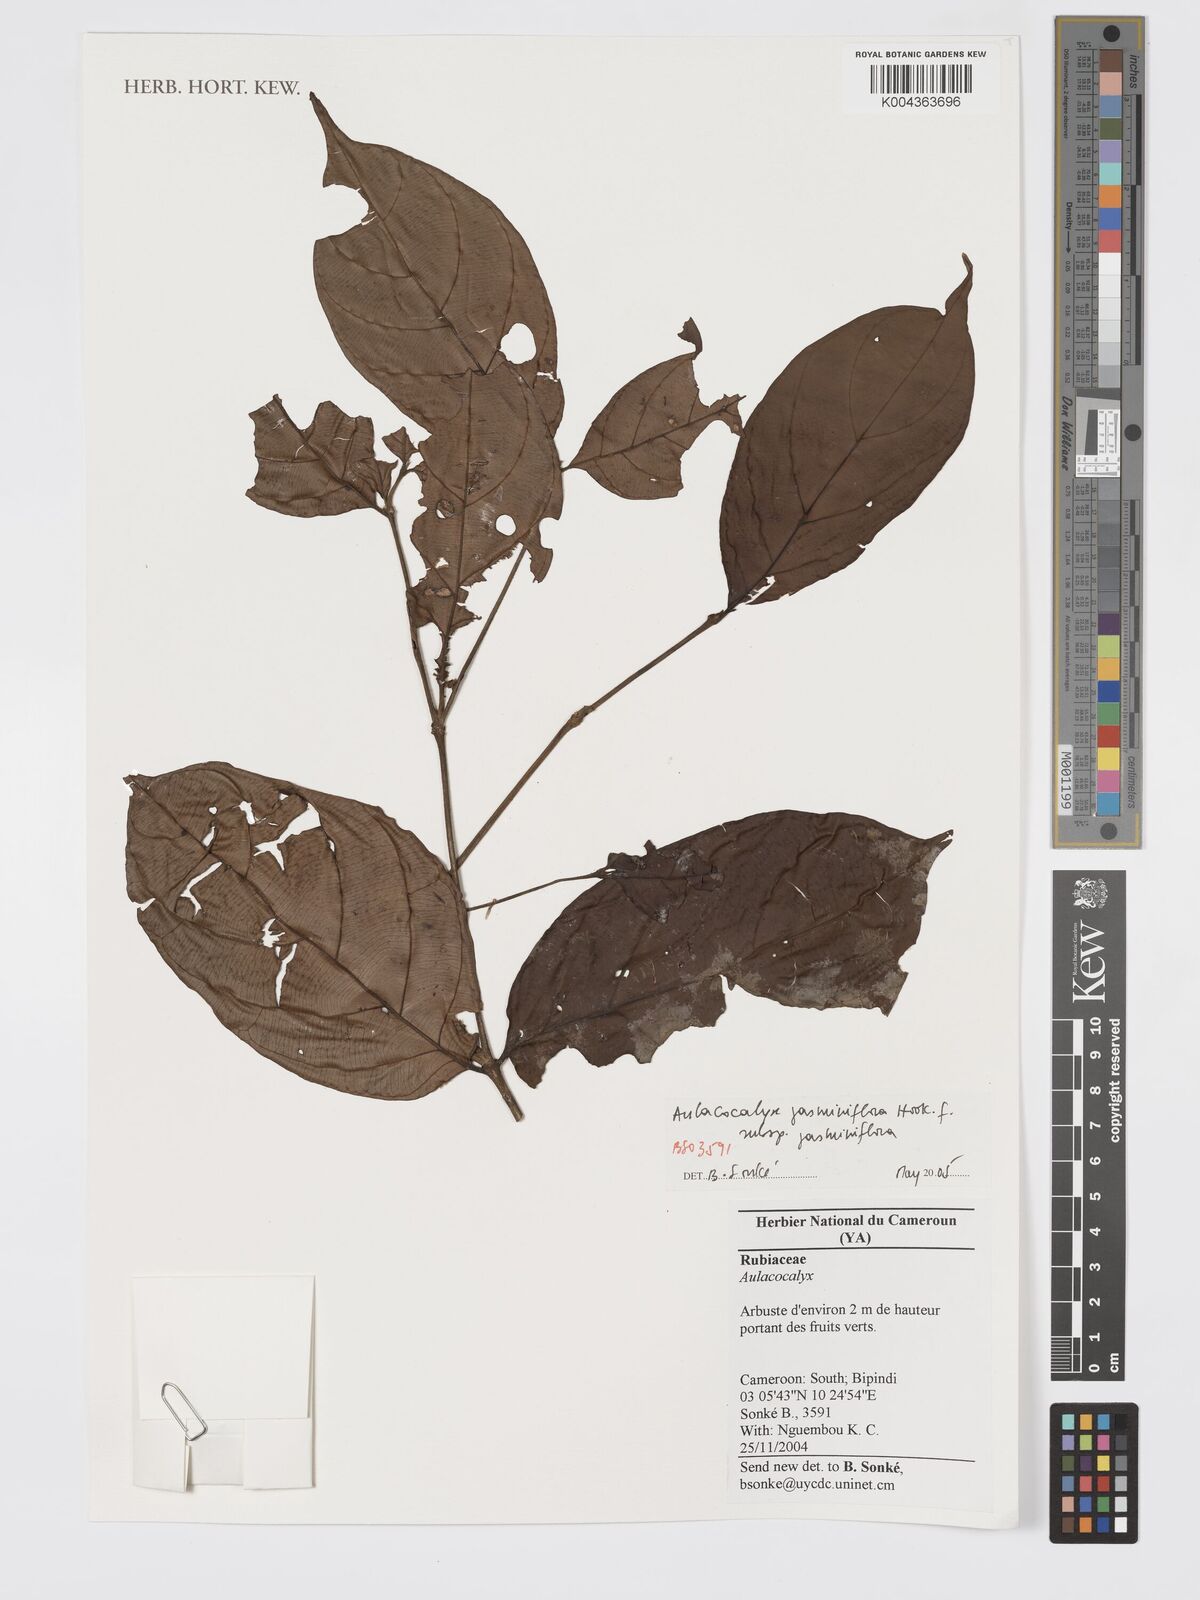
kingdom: Plantae
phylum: Tracheophyta
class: Magnoliopsida
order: Gentianales
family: Rubiaceae
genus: Aulacocalyx
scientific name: Aulacocalyx jasminiflora
